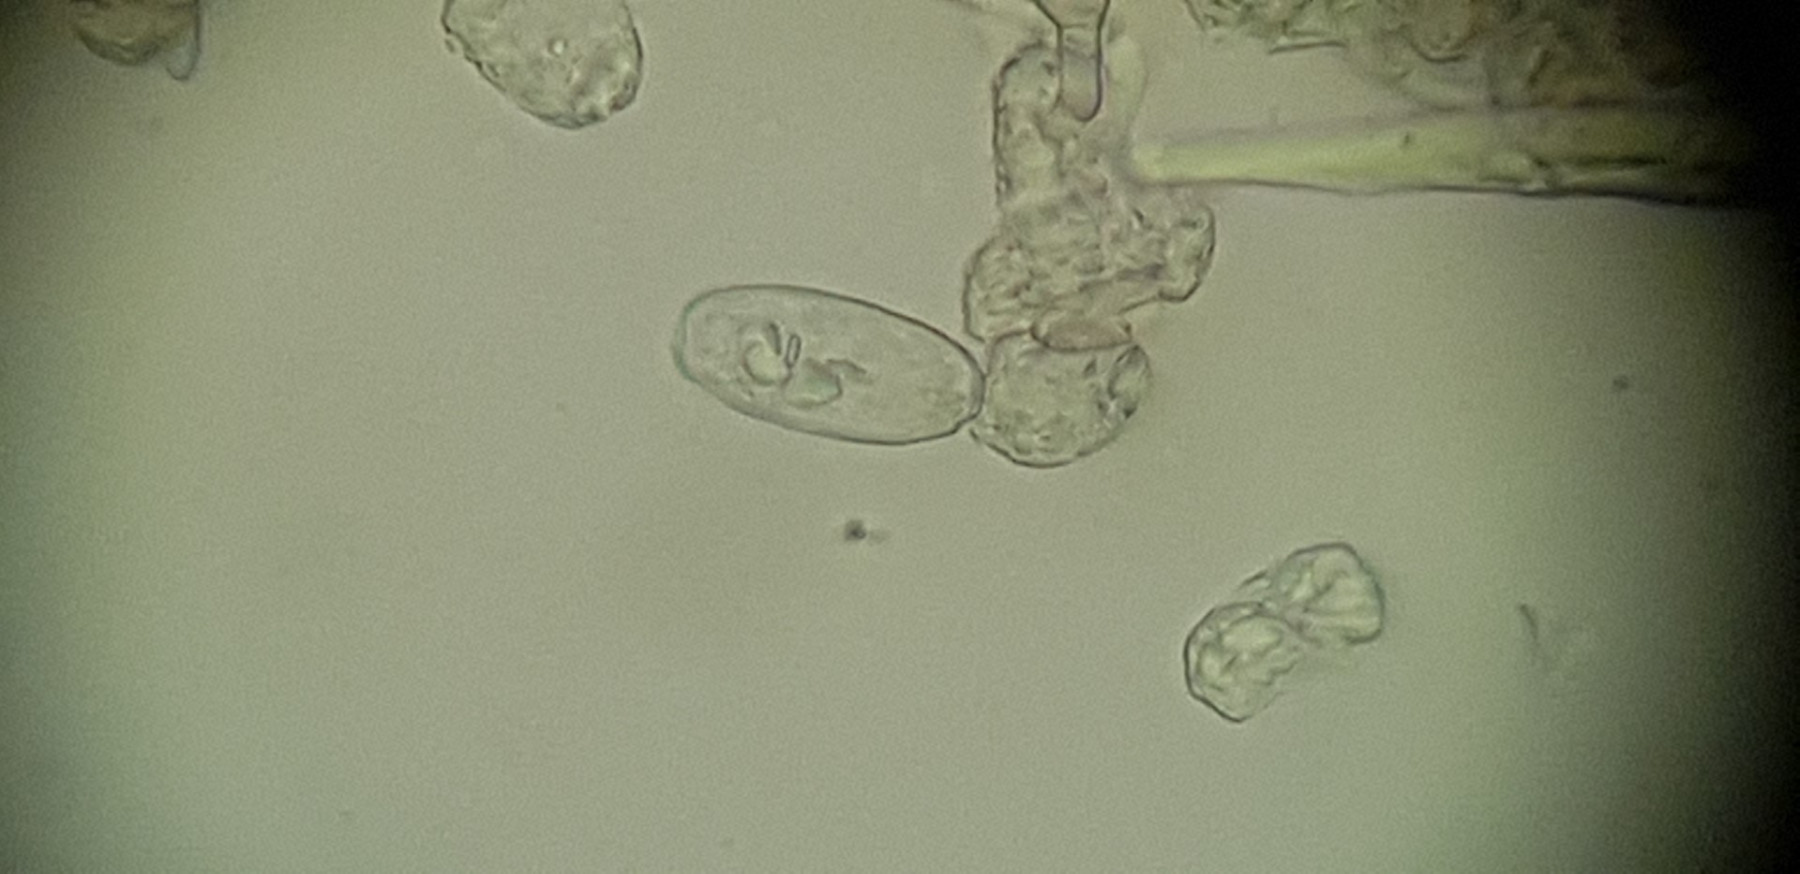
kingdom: Fungi
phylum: Ascomycota
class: Leotiomycetes
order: Helotiales
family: Erysiphaceae
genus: Podosphaera
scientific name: Podosphaera clandestina
